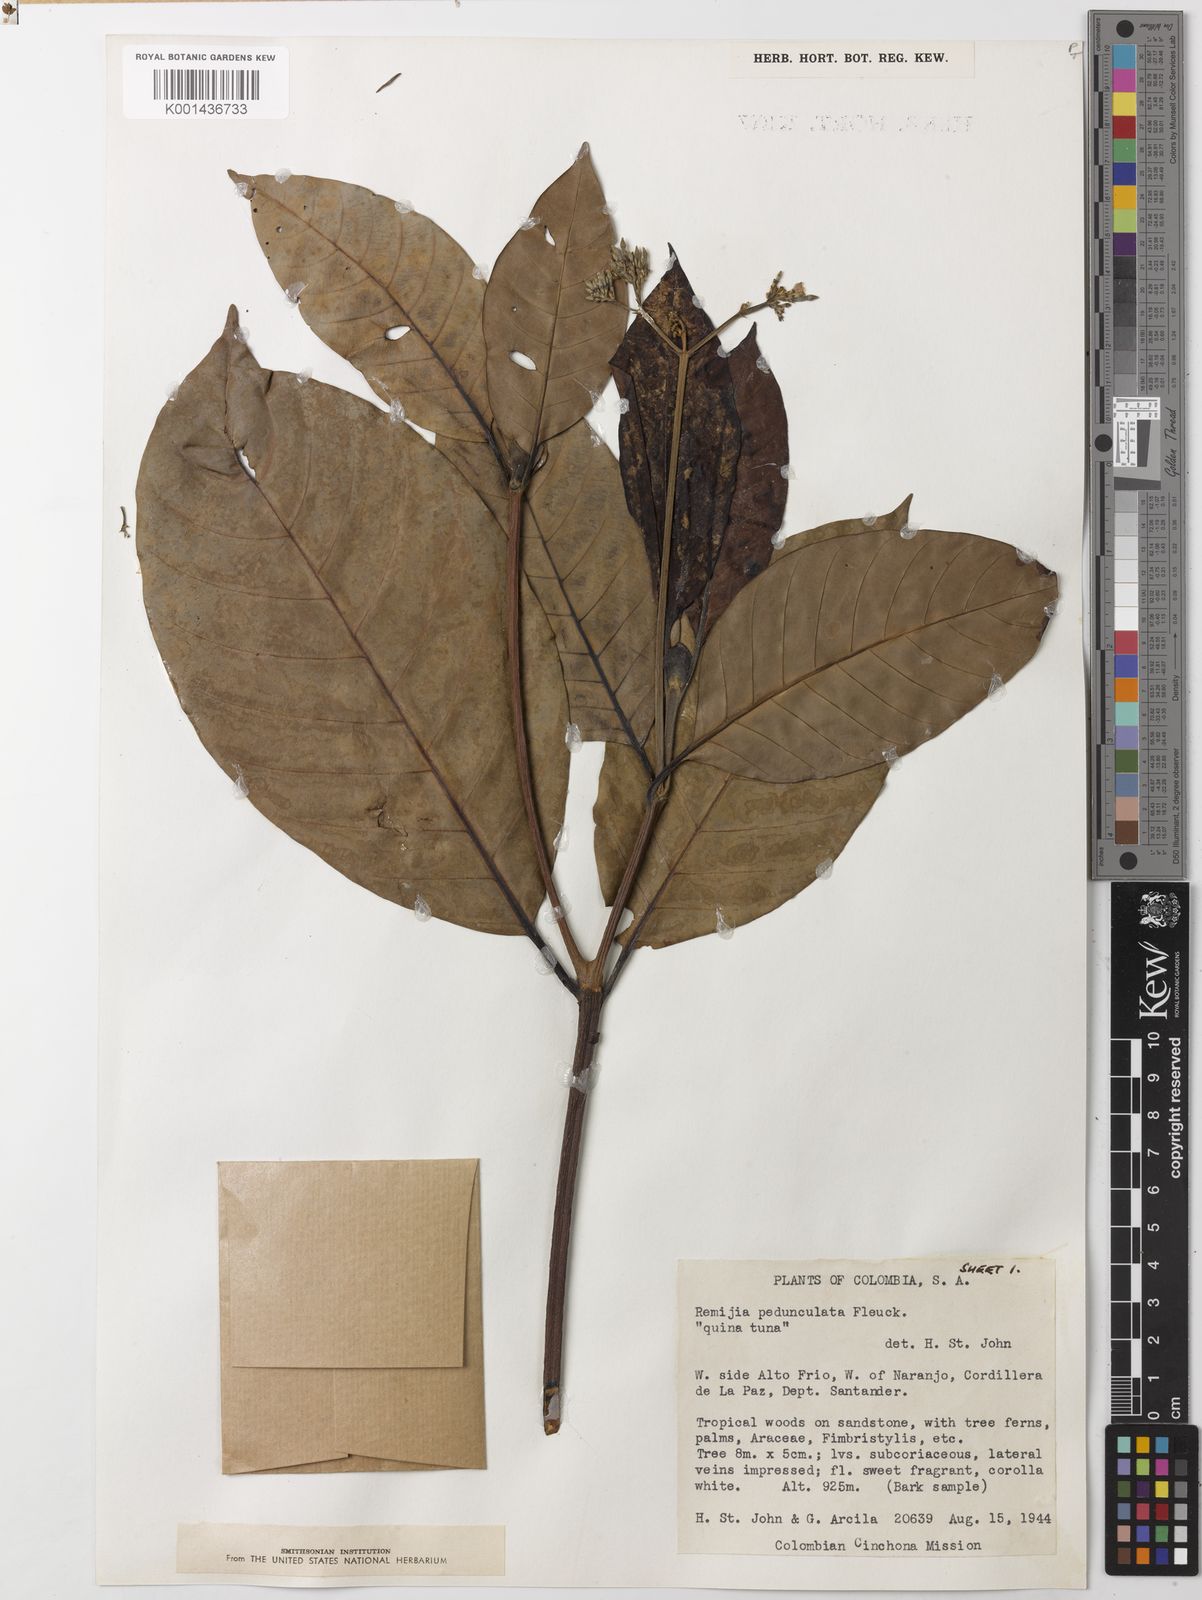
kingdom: Plantae
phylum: Tracheophyta
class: Magnoliopsida
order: Gentianales
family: Rubiaceae
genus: Ciliosemina
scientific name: Ciliosemina pedunculata
